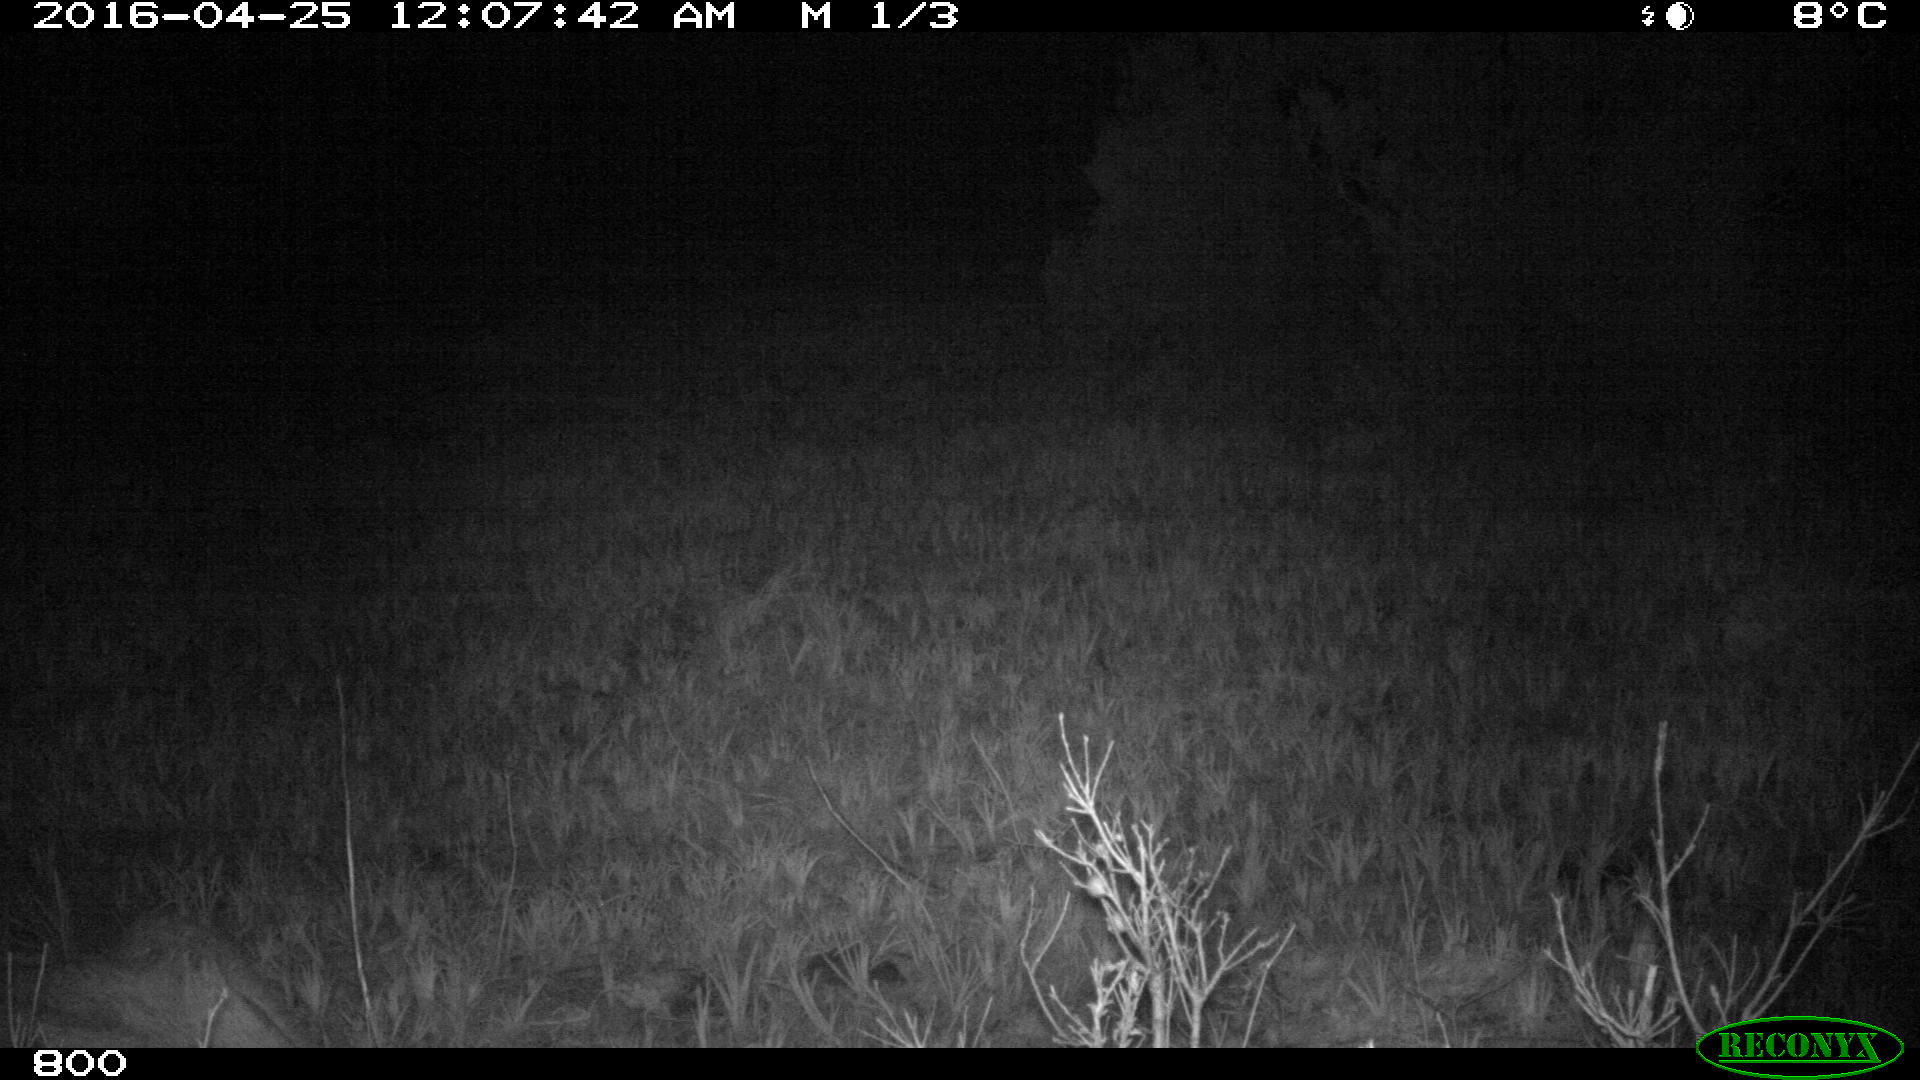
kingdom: Animalia
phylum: Chordata
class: Mammalia
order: Artiodactyla
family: Bovidae
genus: Bos
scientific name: Bos taurus
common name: Domesticated cattle
